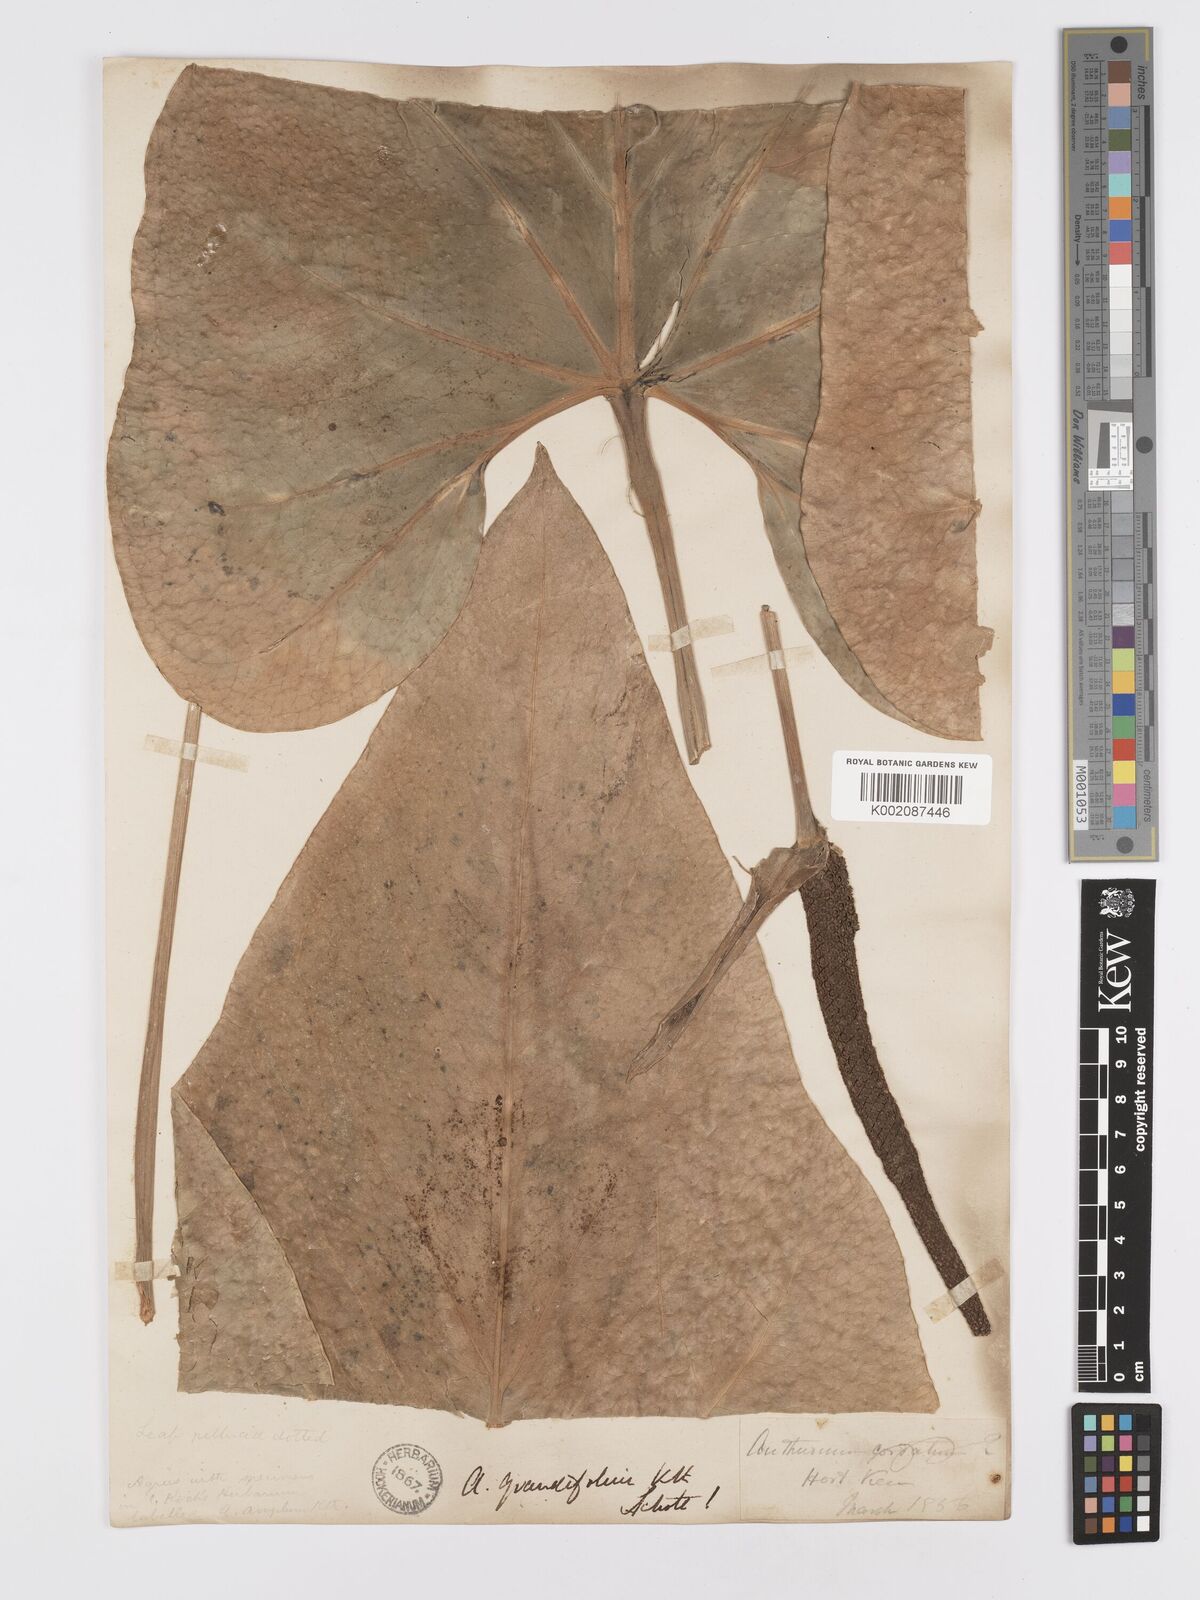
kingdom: Plantae
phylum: Tracheophyta
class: Liliopsida
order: Alismatales
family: Araceae
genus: Anthurium
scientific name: Anthurium
